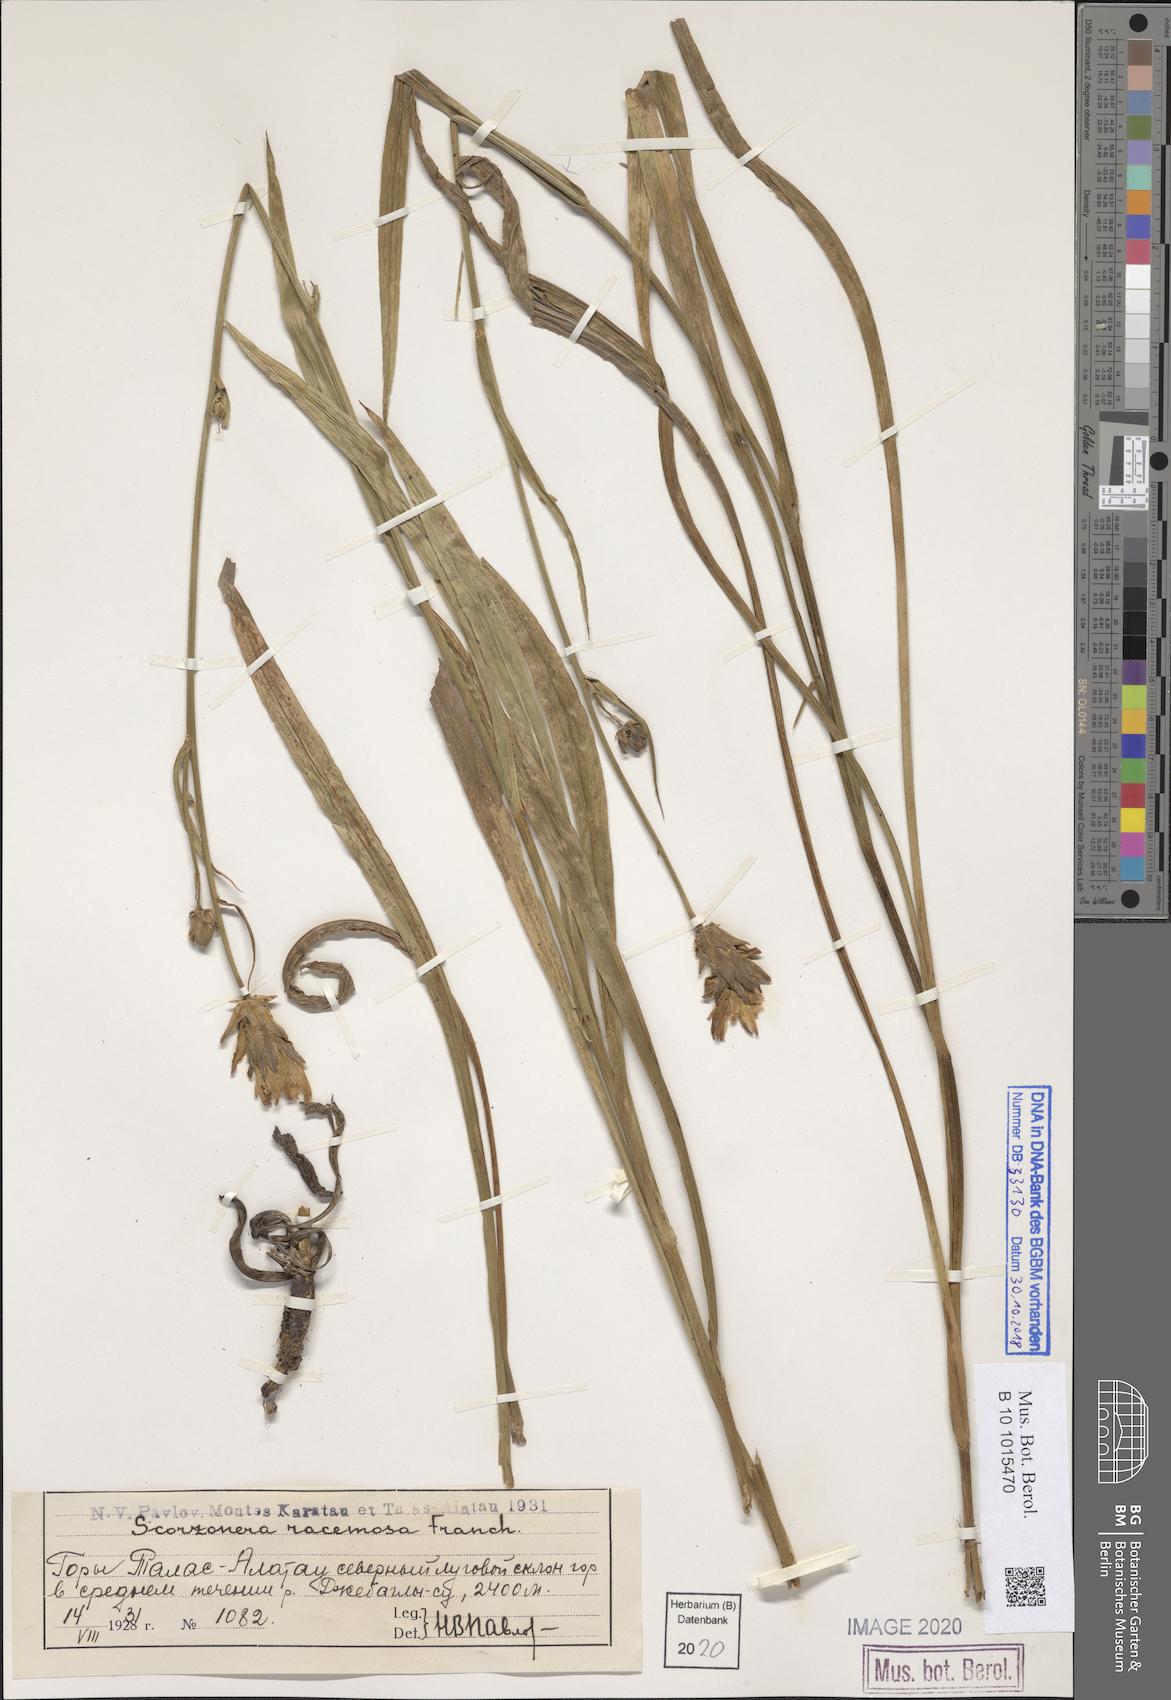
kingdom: Plantae
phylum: Tracheophyta
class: Magnoliopsida
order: Asterales
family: Asteraceae
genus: Scorzonera
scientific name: Scorzonera racemosa
